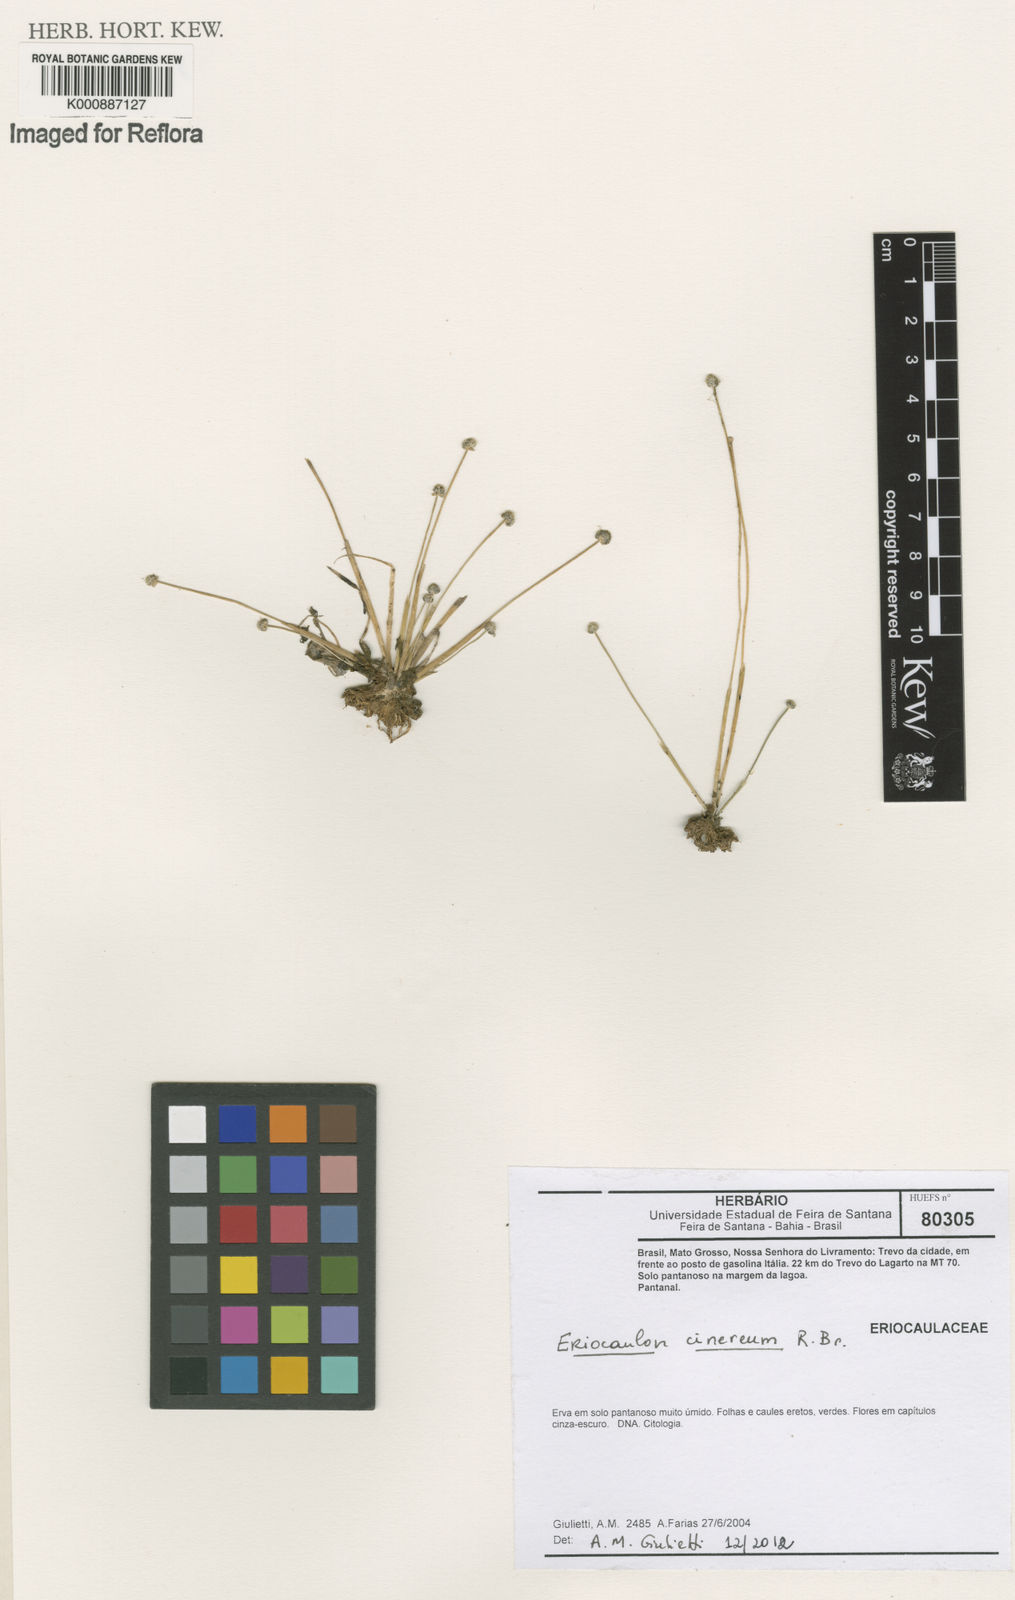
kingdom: Plantae
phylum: Tracheophyta
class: Liliopsida
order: Poales
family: Eriocaulaceae
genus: Eriocaulon
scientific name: Eriocaulon cinereum
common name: Ashy pipewort
